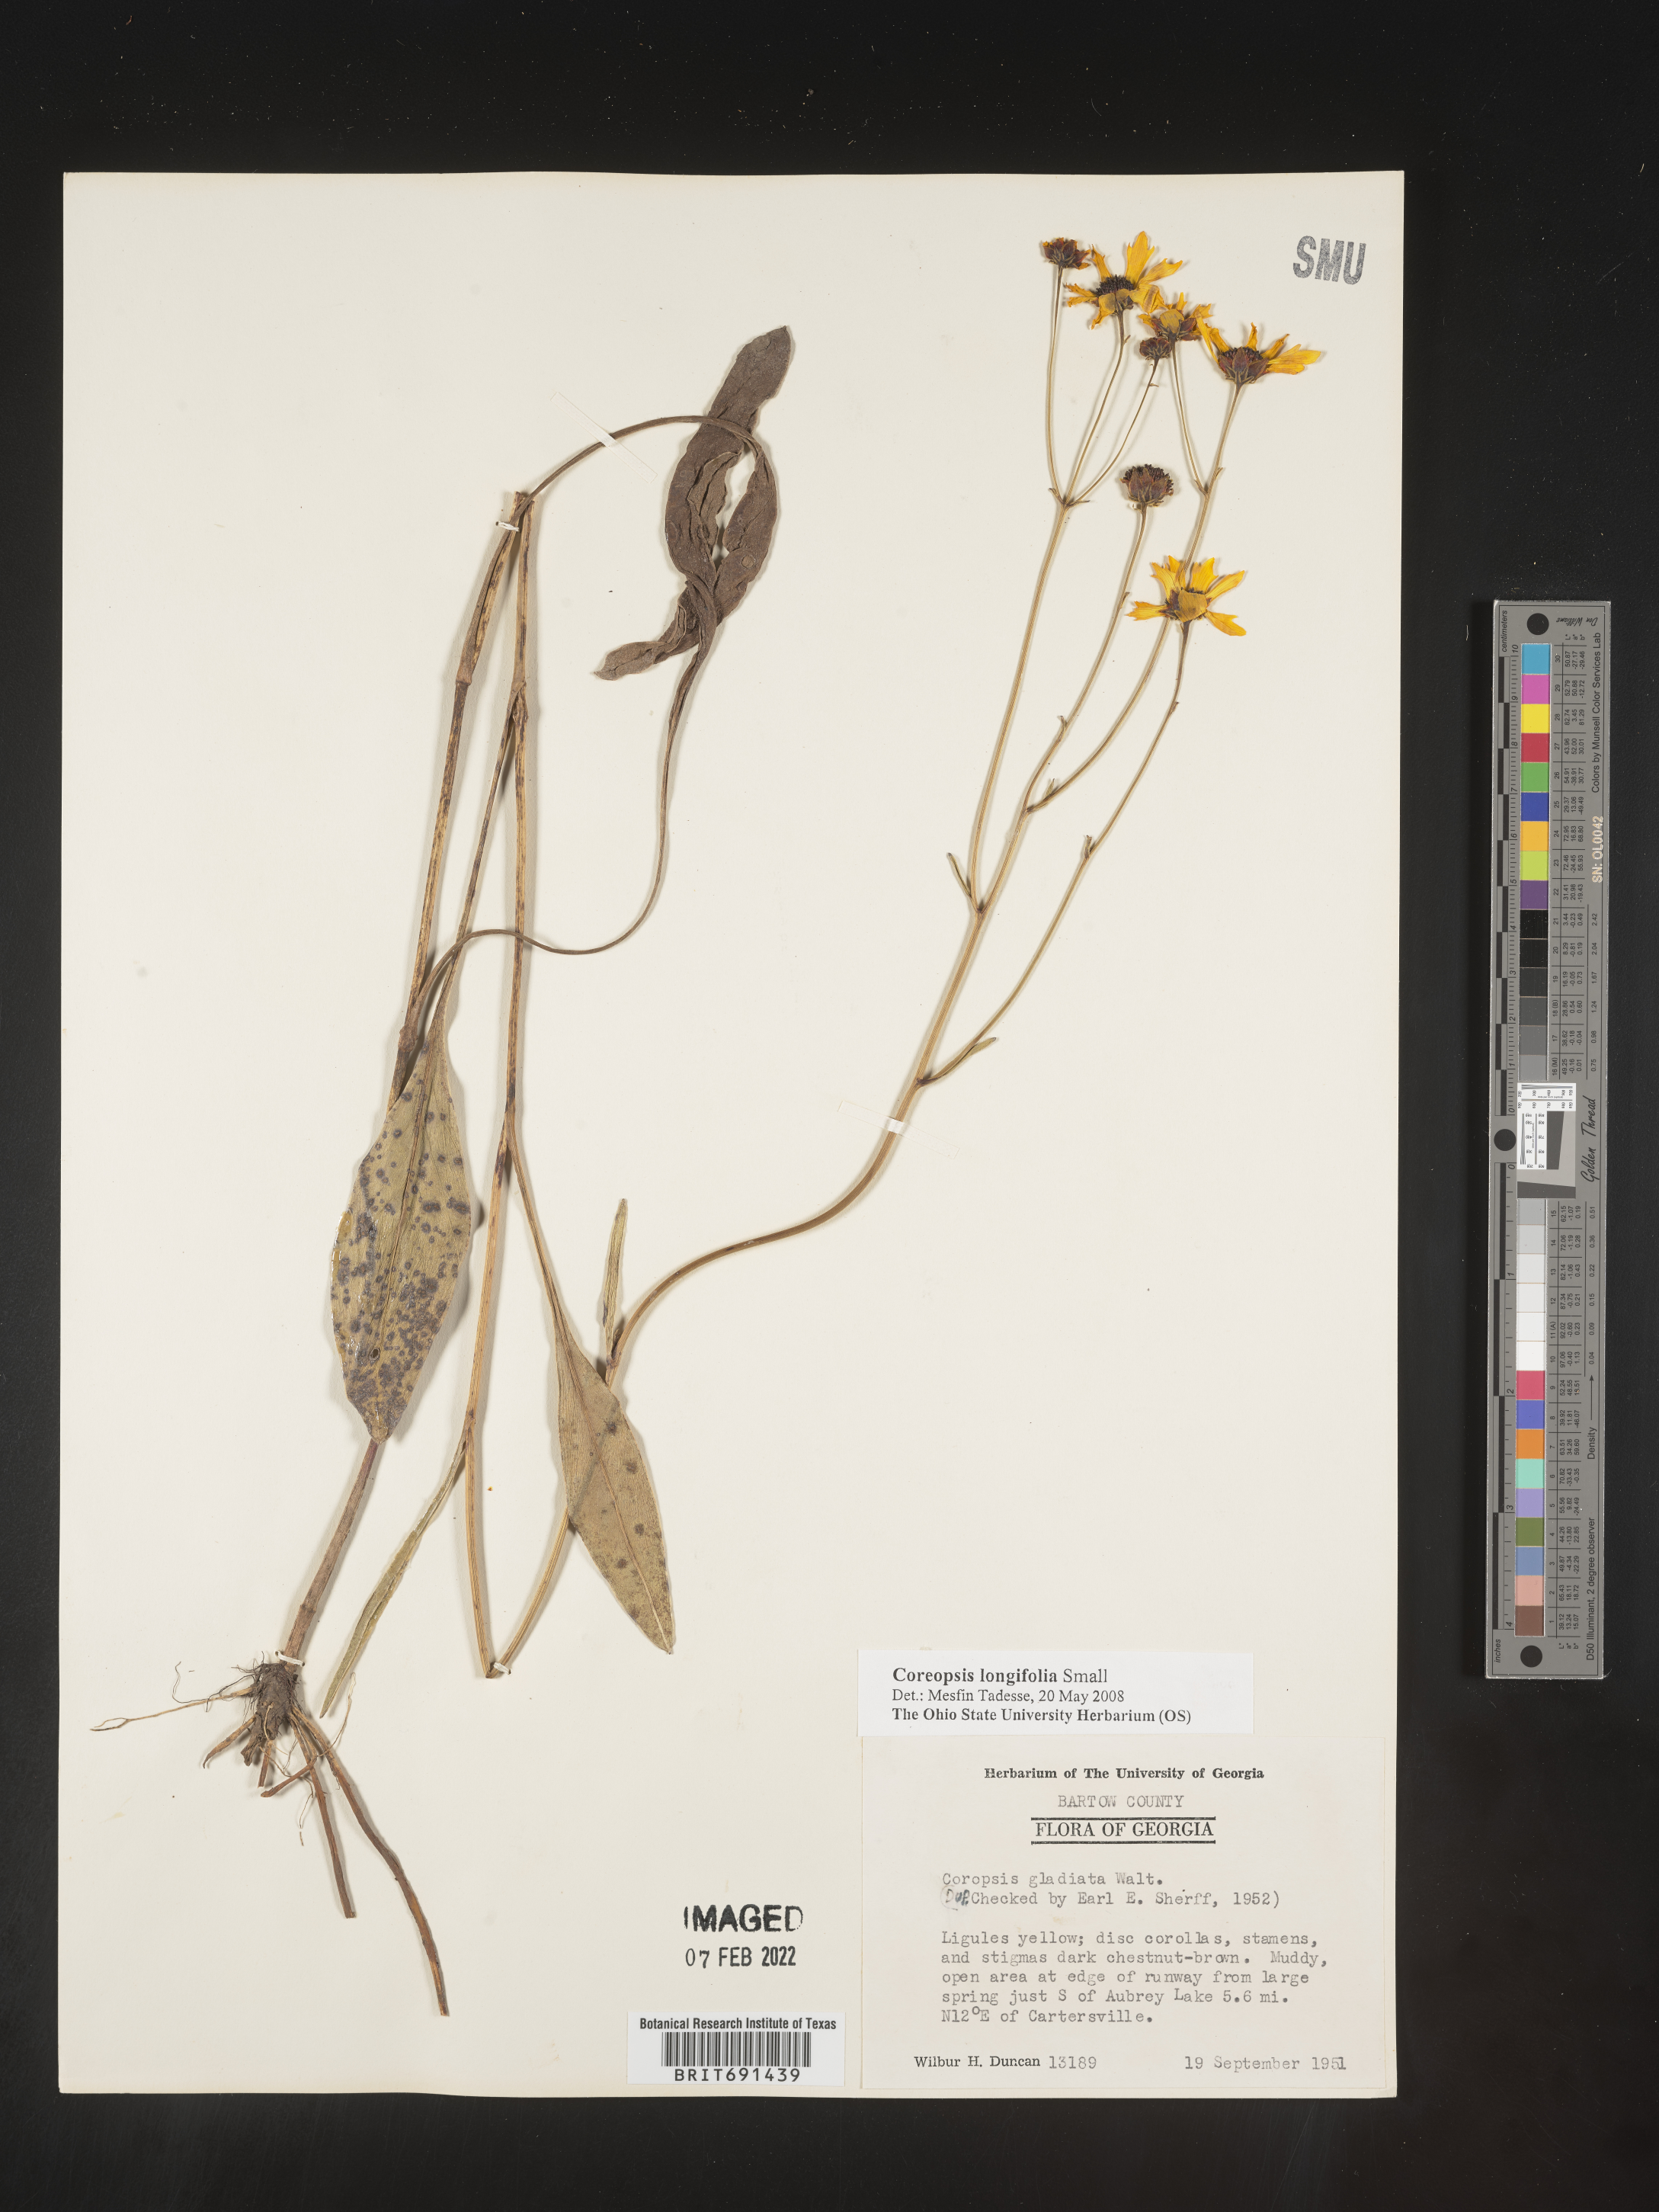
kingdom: Plantae
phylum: Tracheophyta
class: Magnoliopsida
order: Asterales
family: Asteraceae
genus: Coreopsis
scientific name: Coreopsis gladiata
